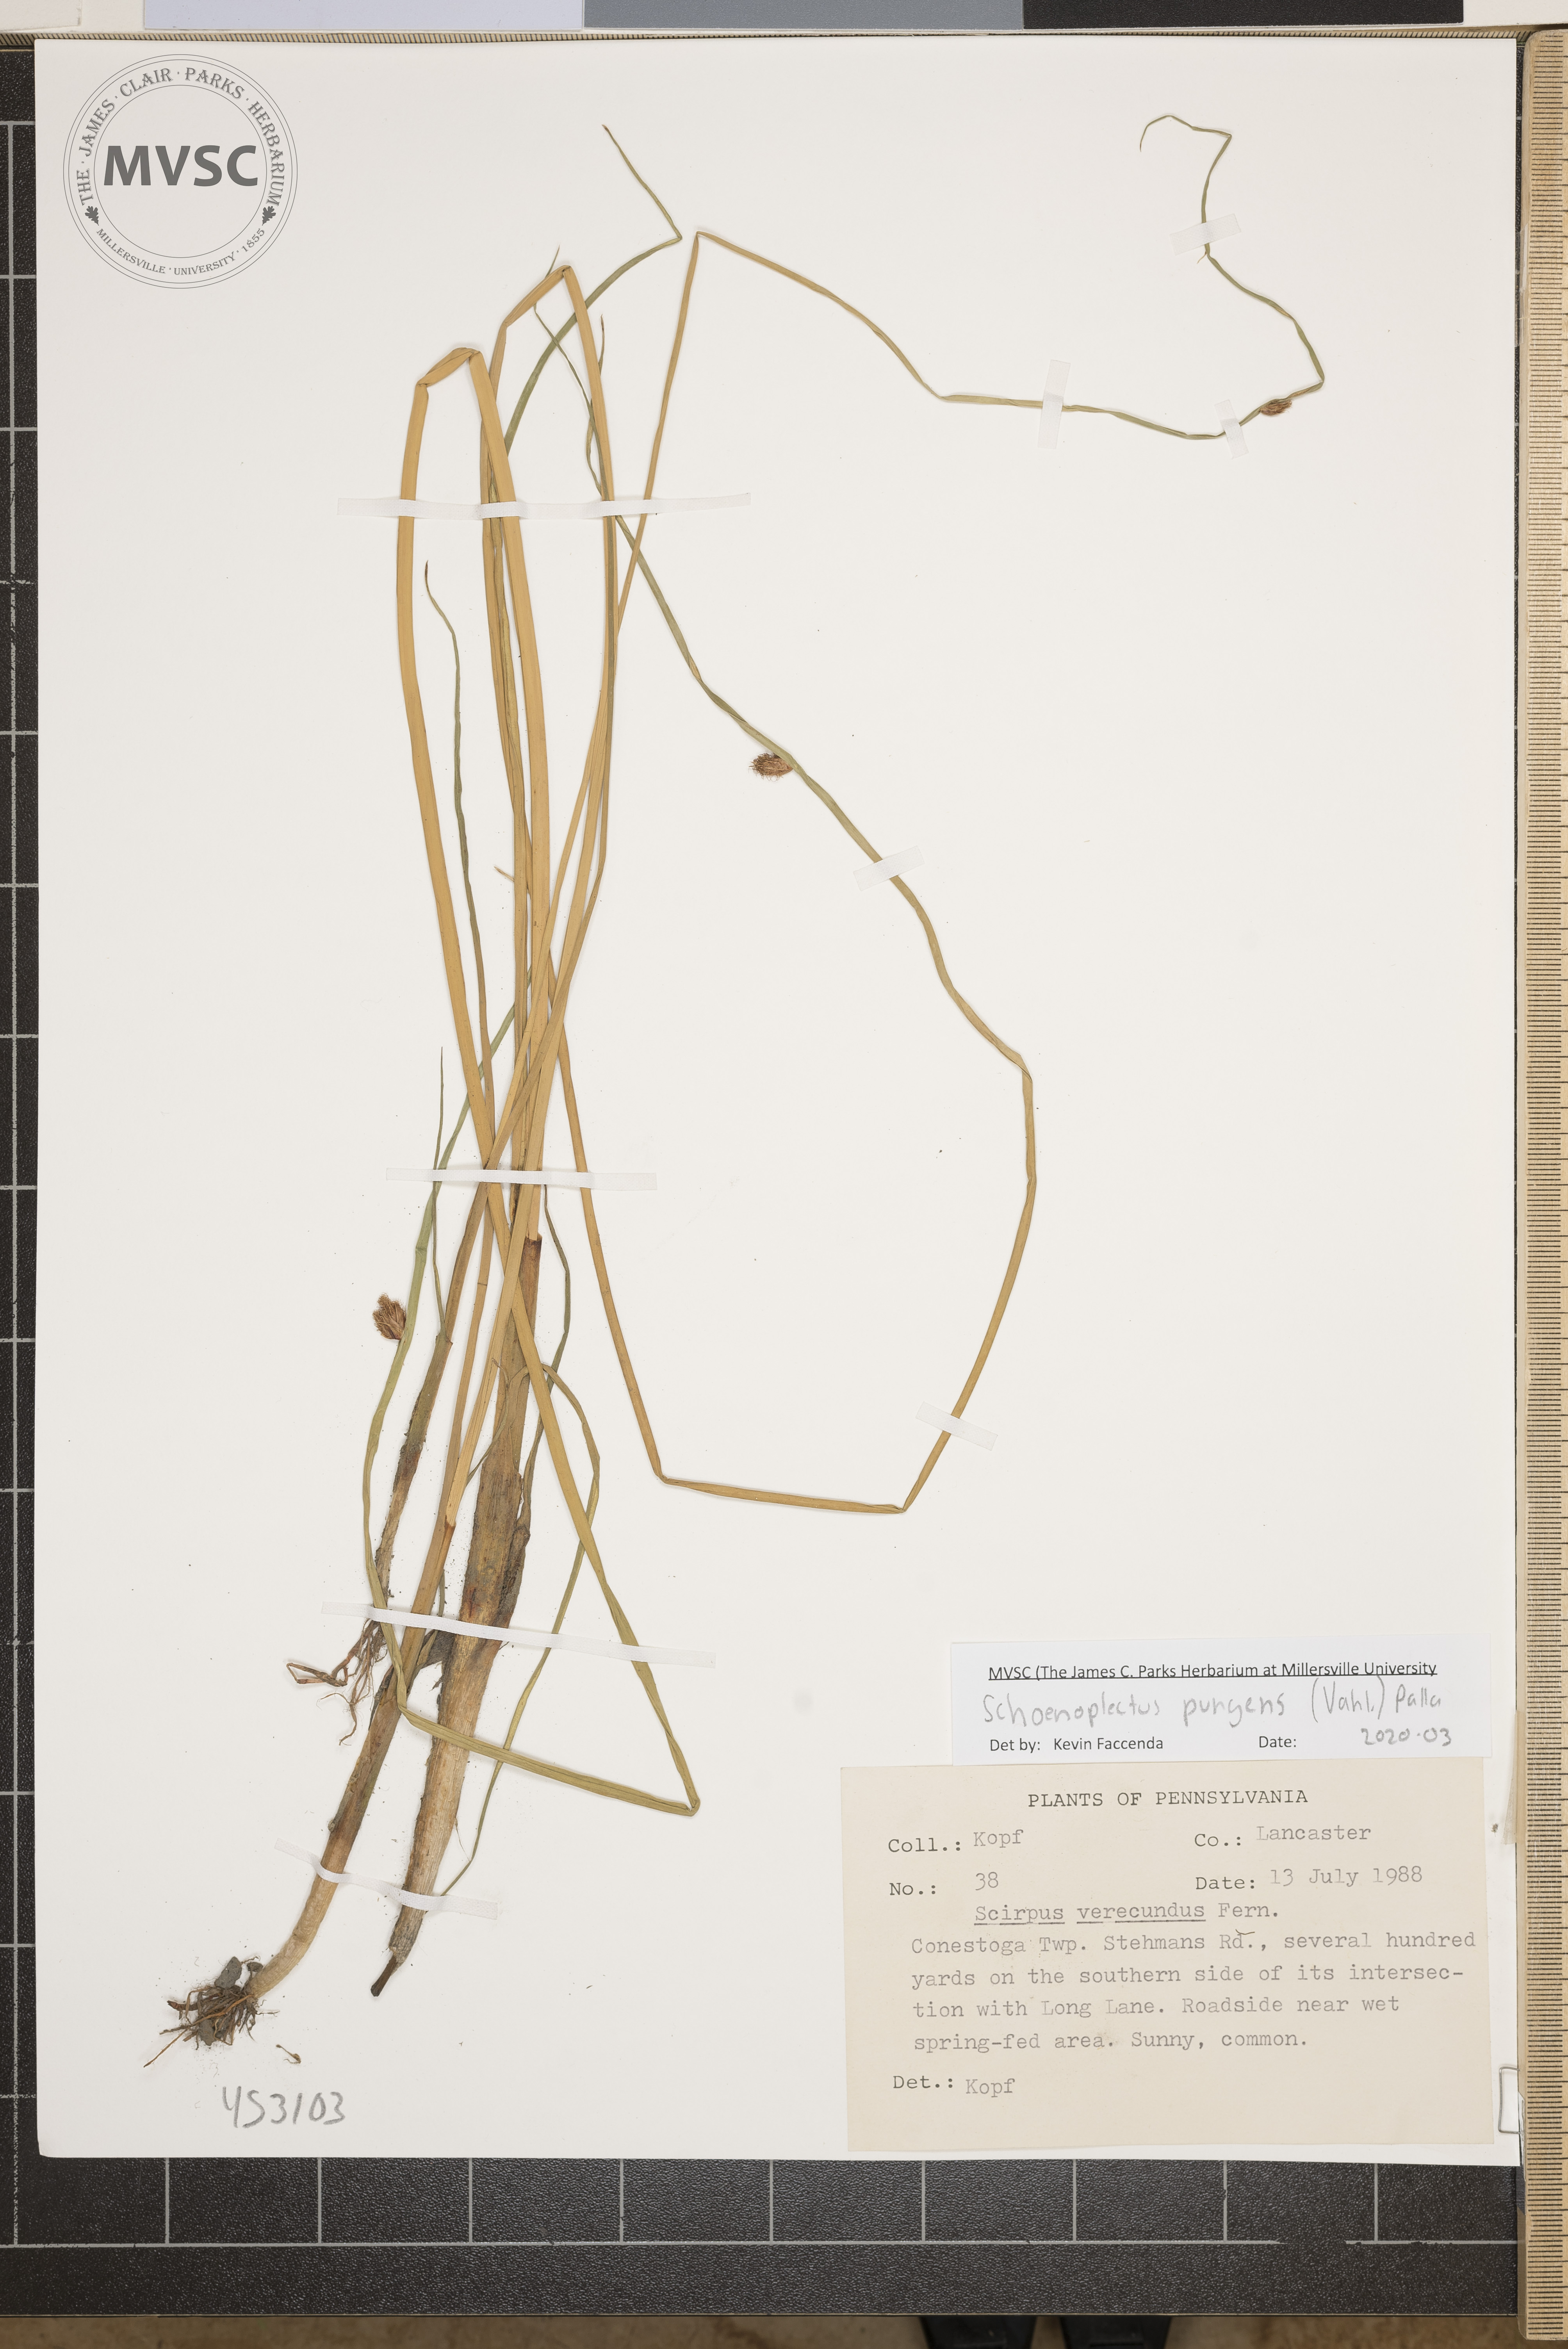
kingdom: Plantae
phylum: Tracheophyta
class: Liliopsida
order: Poales
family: Cyperaceae
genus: Schoenoplectus
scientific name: Schoenoplectus pungens
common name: Sharp club-rush
